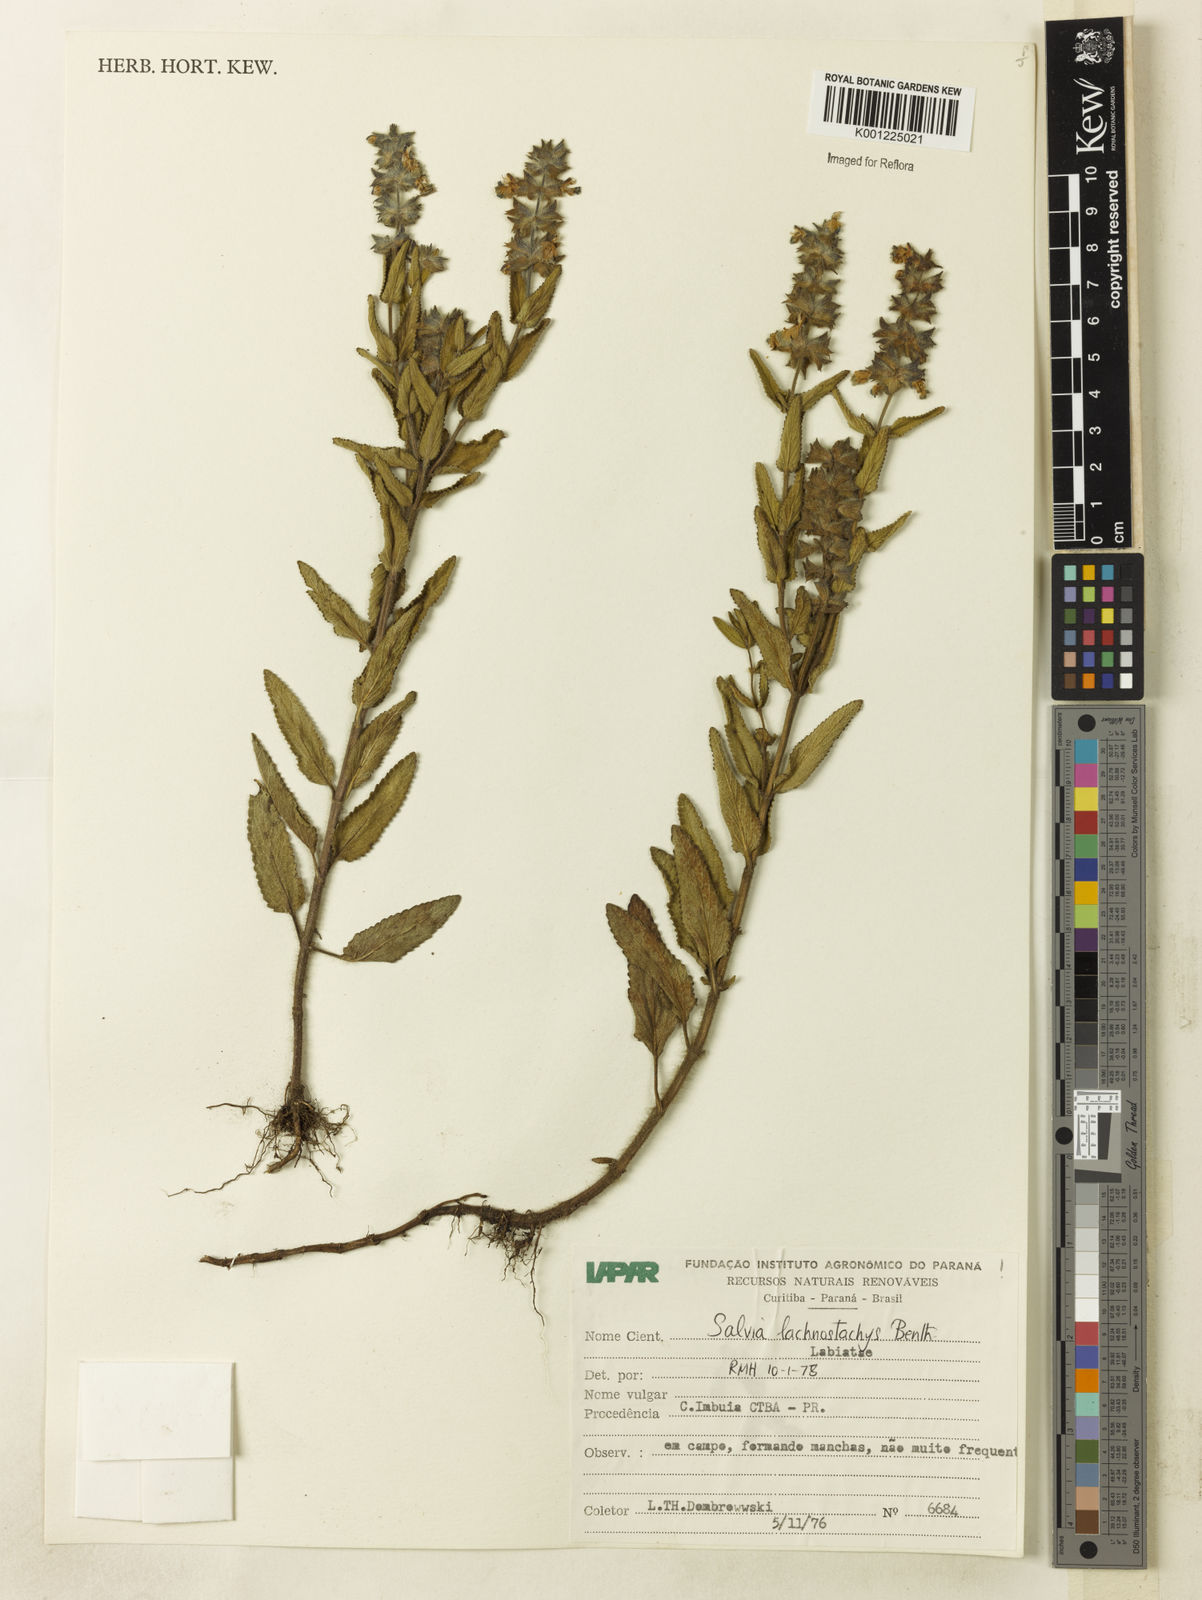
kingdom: Plantae
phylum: Tracheophyta
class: Magnoliopsida
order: Caryophyllales
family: Cactaceae
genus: Mammillaria
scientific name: Mammillaria laui
